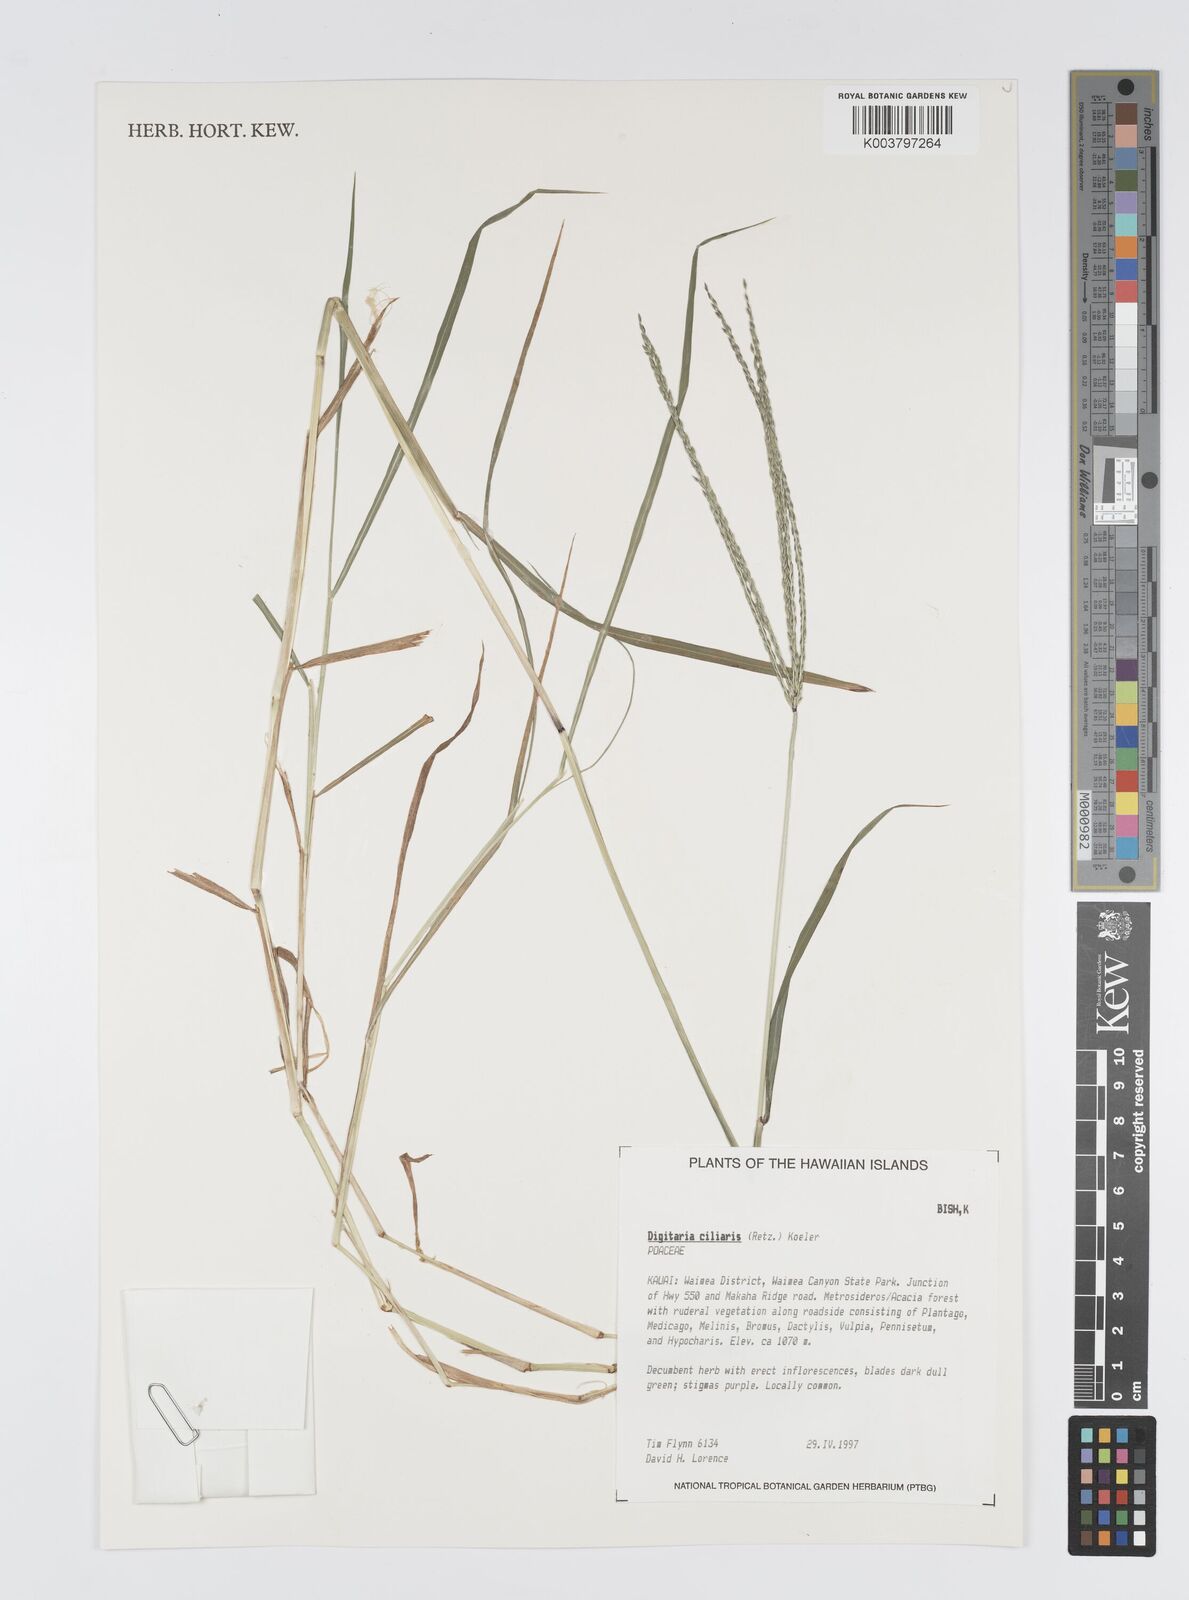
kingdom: Plantae
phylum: Tracheophyta
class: Liliopsida
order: Poales
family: Poaceae
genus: Digitaria
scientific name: Digitaria ciliaris
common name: Tropical finger-grass
